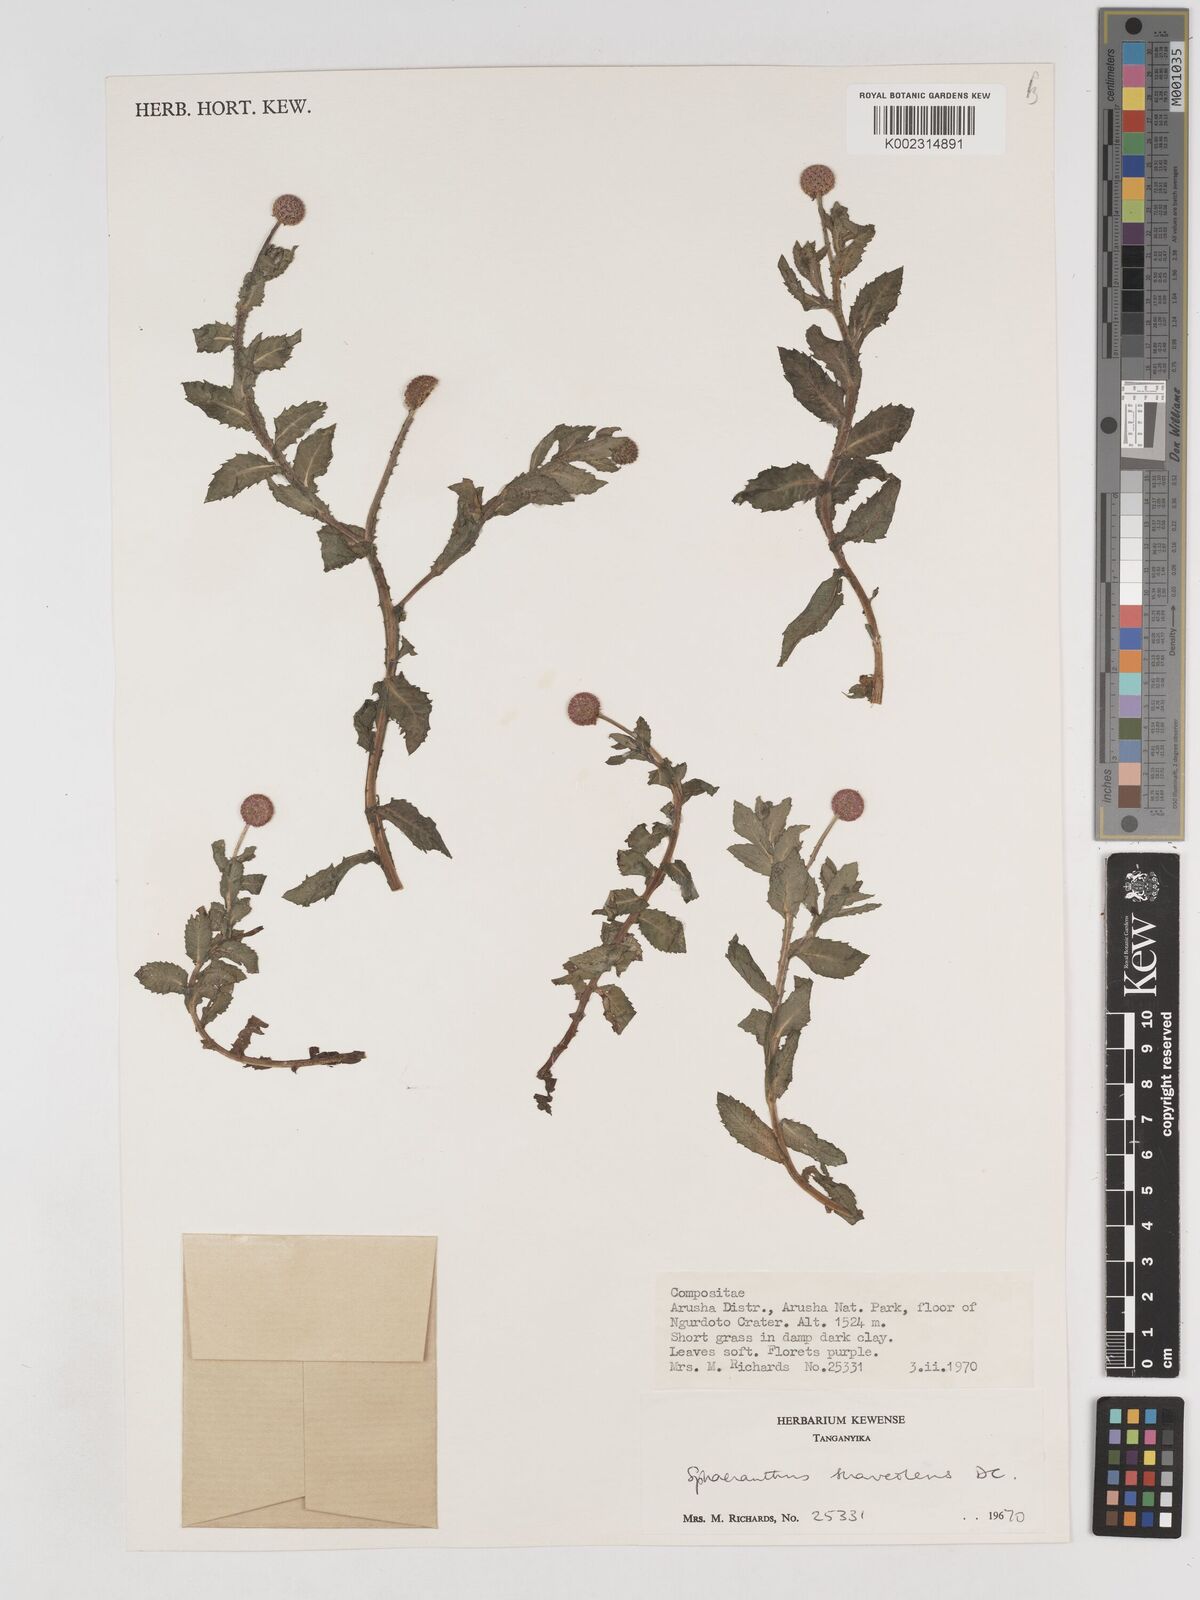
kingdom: Plantae
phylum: Tracheophyta
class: Magnoliopsida
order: Asterales
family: Asteraceae
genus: Sphaeranthus
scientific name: Sphaeranthus suaveolens
